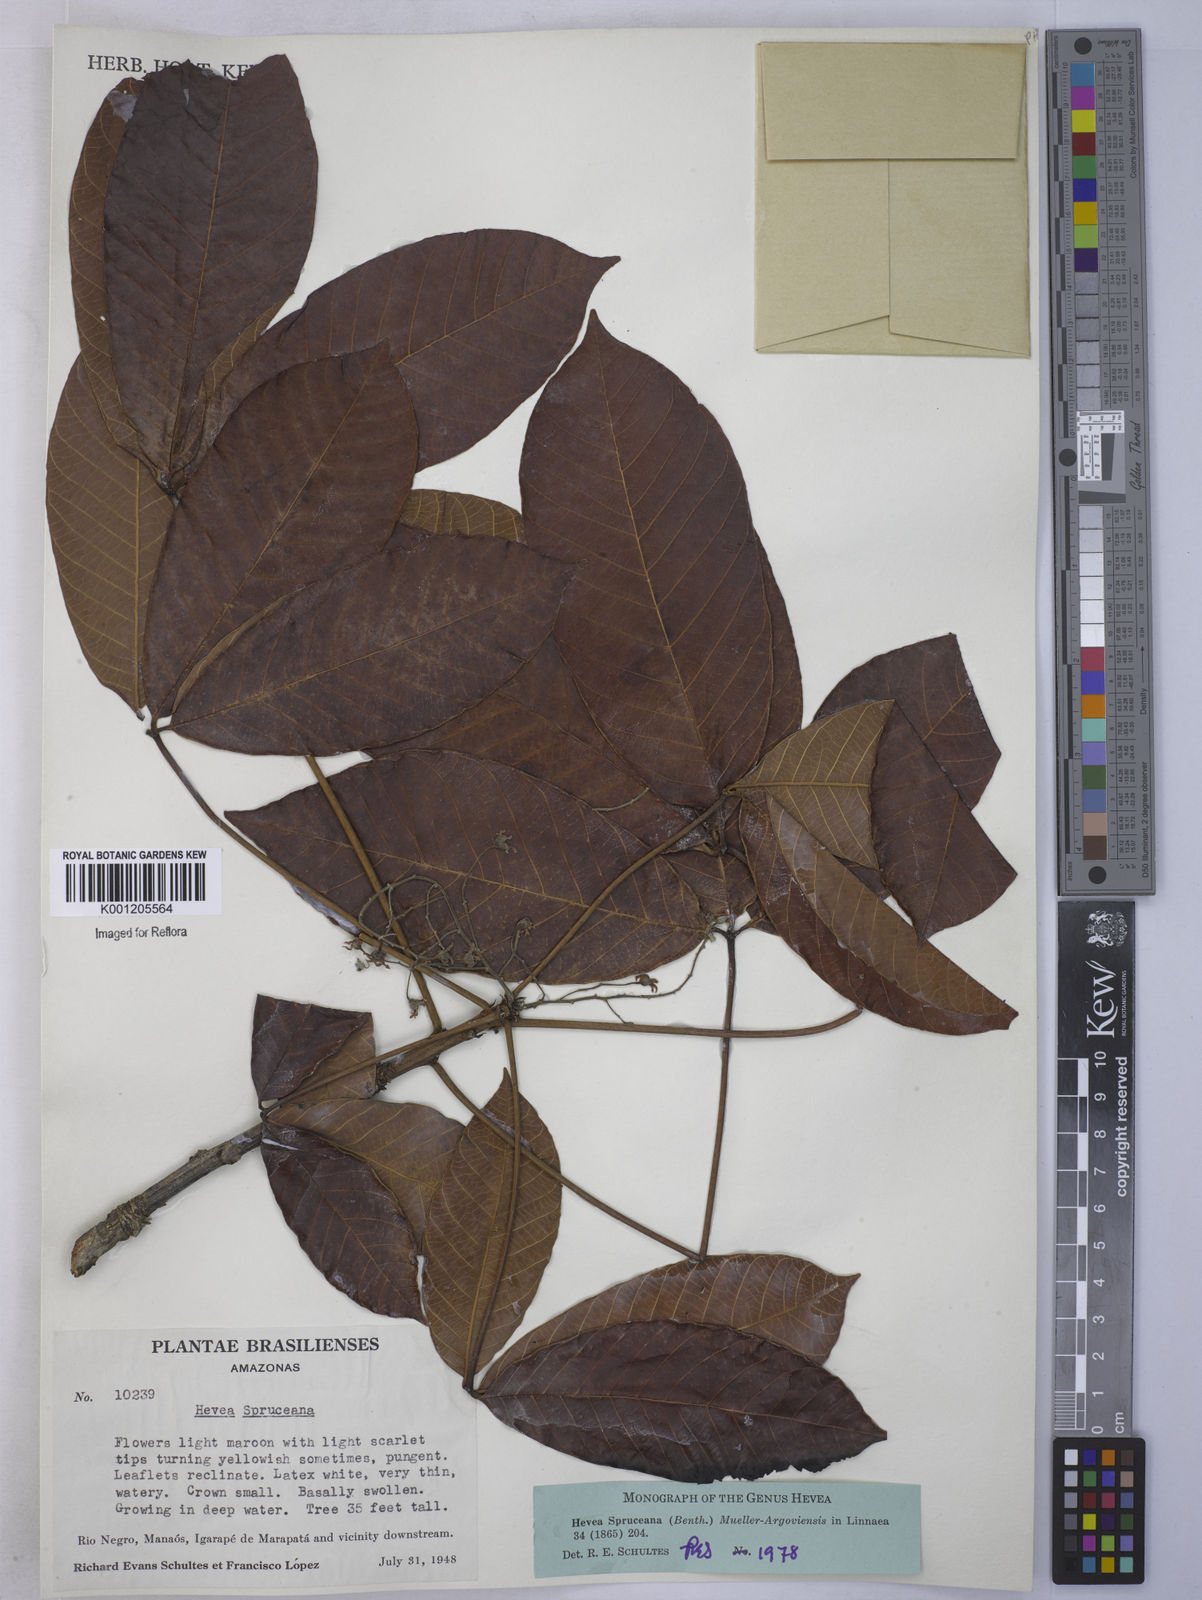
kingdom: Plantae
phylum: Tracheophyta
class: Magnoliopsida
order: Malpighiales
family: Euphorbiaceae
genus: Hevea
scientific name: Hevea
